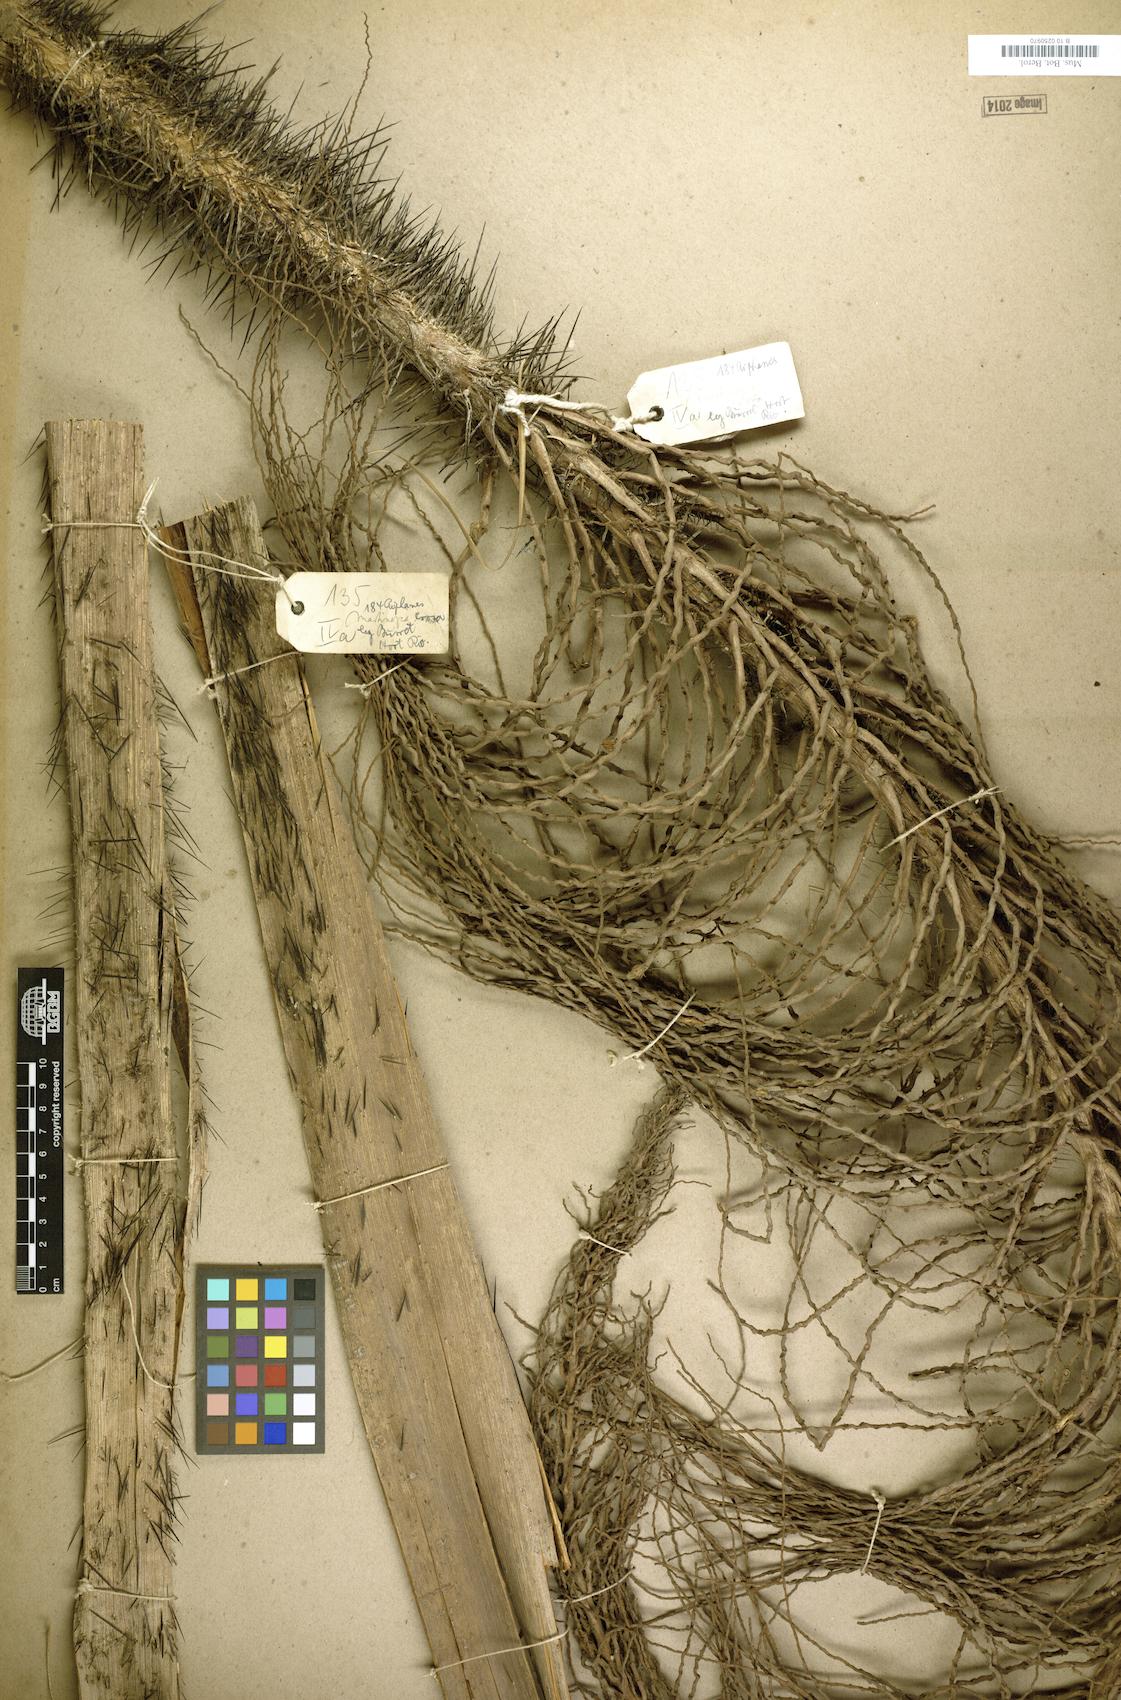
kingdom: Plantae
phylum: Tracheophyta
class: Liliopsida
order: Arecales
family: Arecaceae
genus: Aiphanes
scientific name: Aiphanes minima
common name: Grigri
